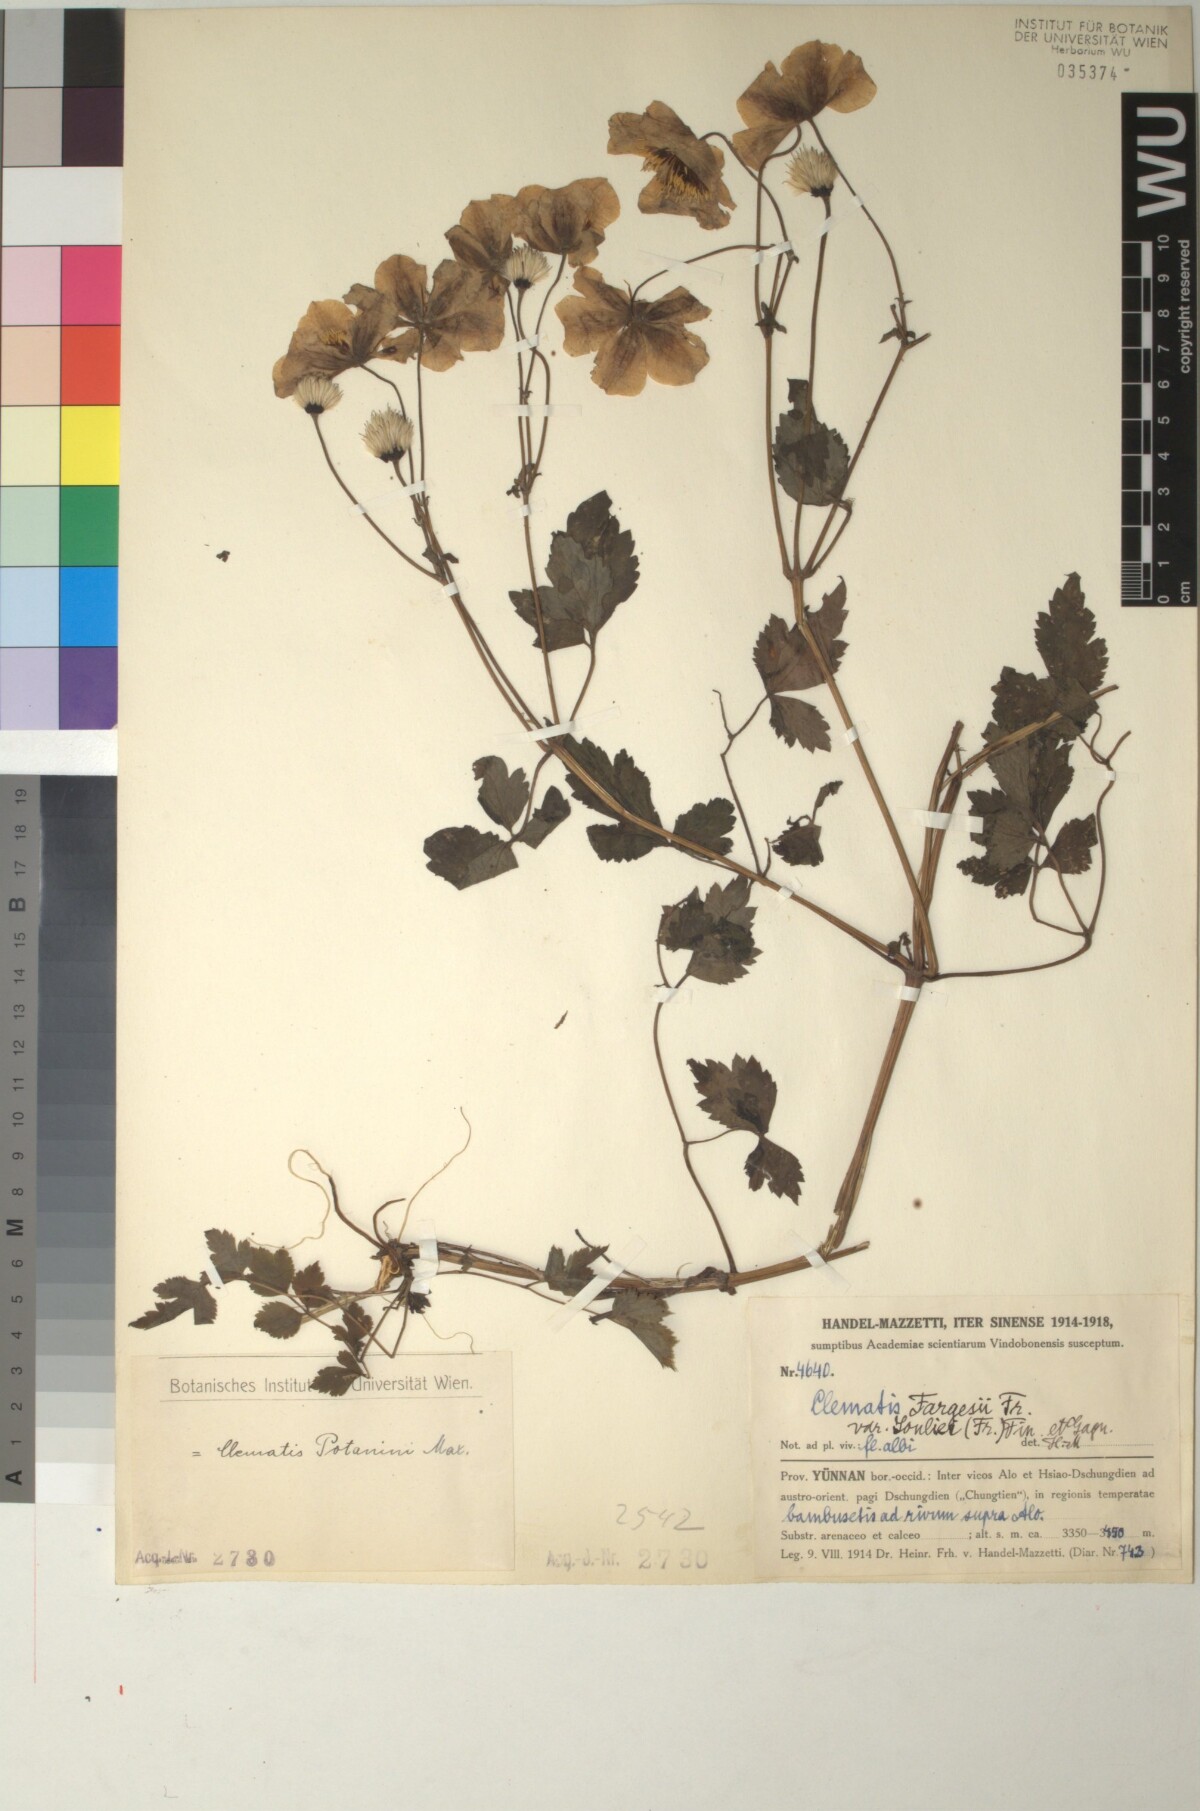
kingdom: Plantae
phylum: Tracheophyta
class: Magnoliopsida
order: Ranunculales
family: Ranunculaceae
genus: Clematis
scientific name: Clematis potaninii
